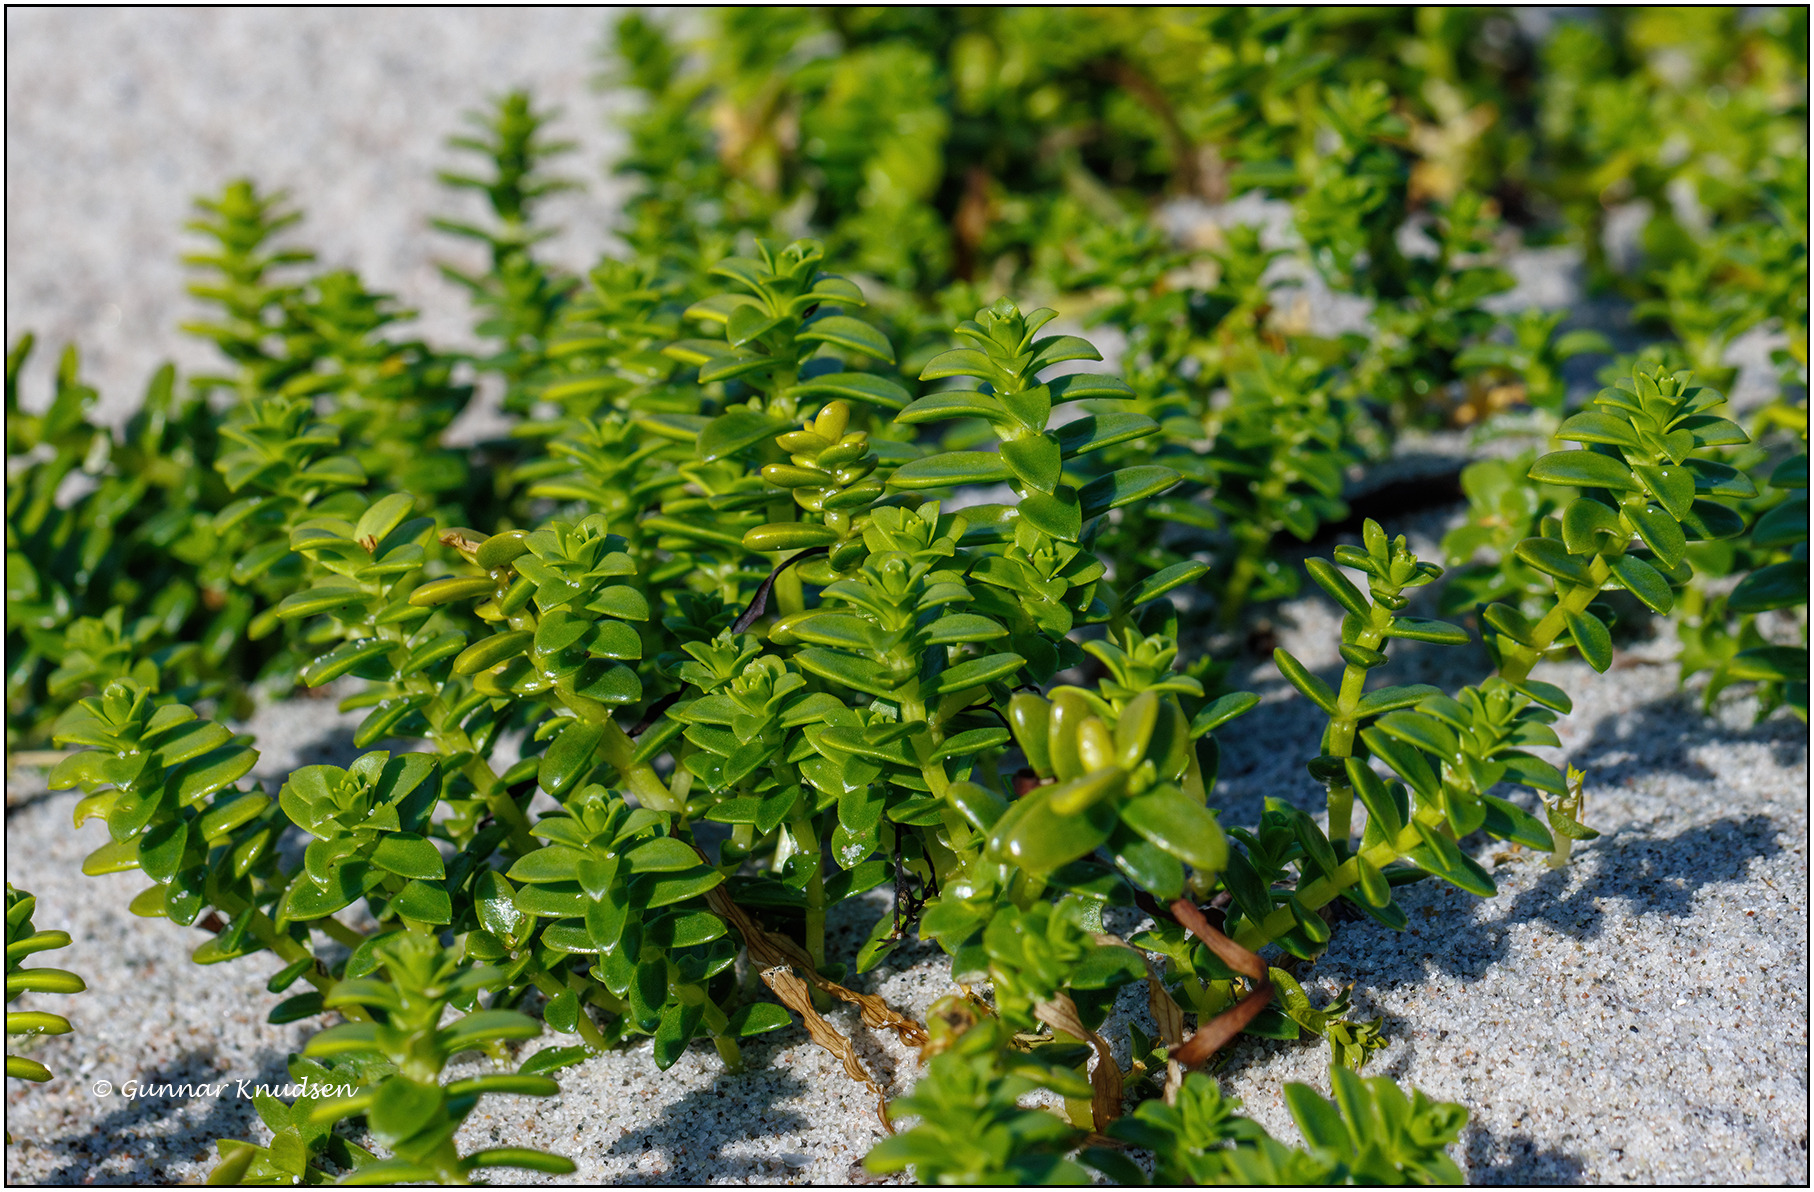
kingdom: Plantae
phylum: Tracheophyta
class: Magnoliopsida
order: Caryophyllales
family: Caryophyllaceae
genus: Honckenya
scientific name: Honckenya peploides
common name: Strandarve
